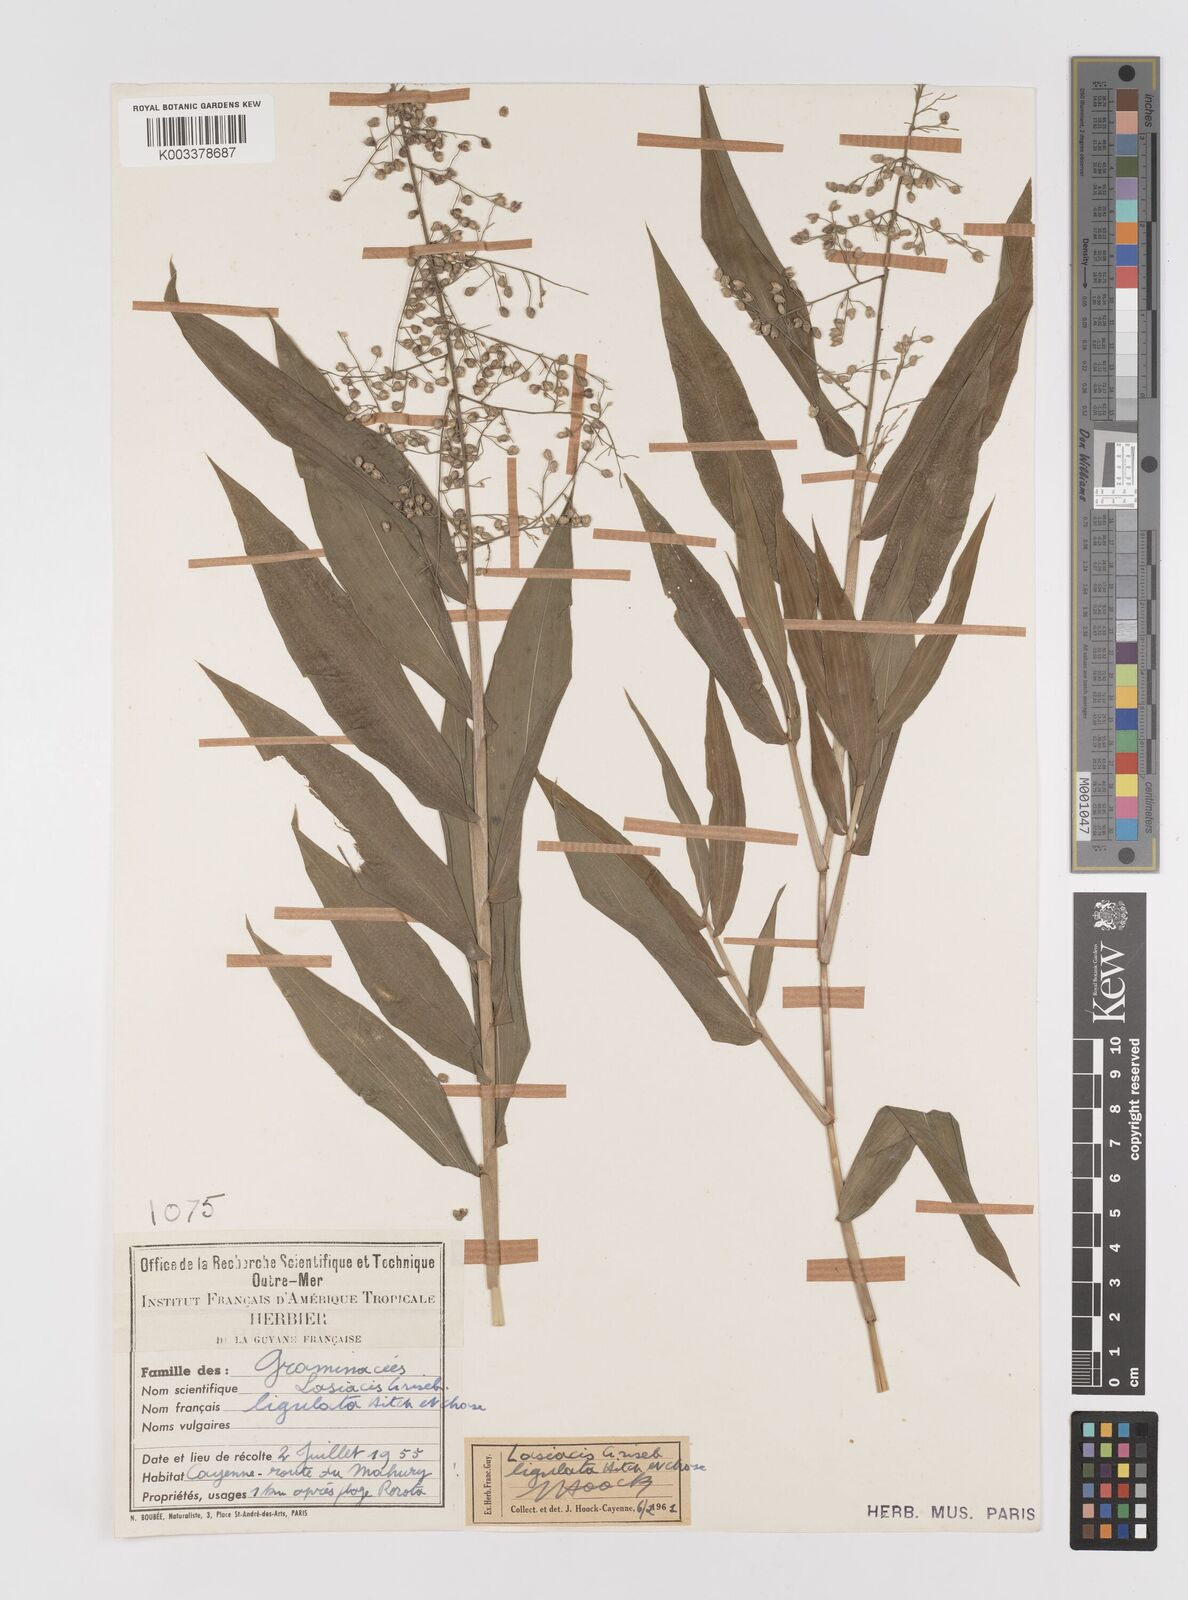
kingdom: Plantae
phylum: Tracheophyta
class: Liliopsida
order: Poales
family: Poaceae
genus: Lasiacis
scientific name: Lasiacis ligulata
